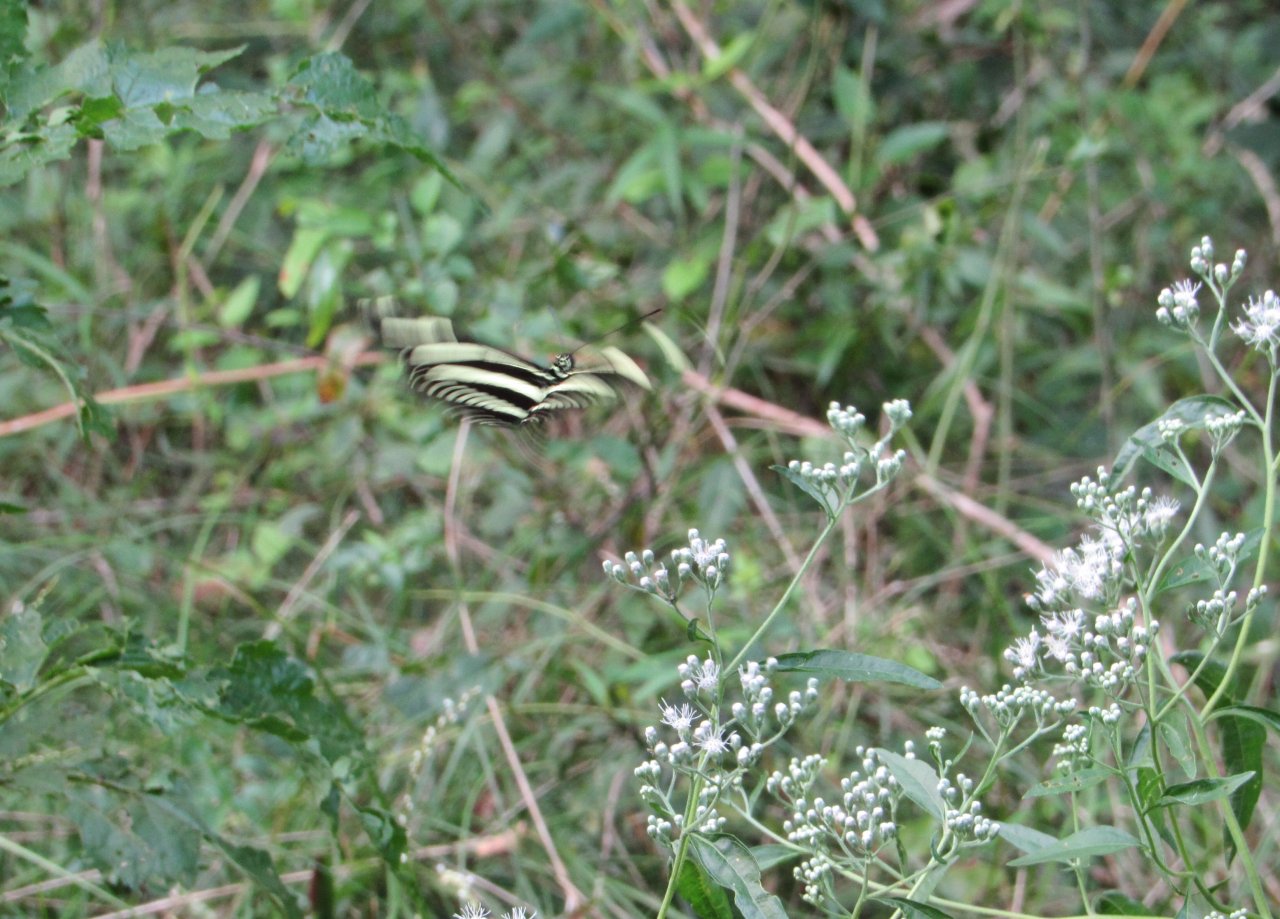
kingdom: Animalia
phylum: Arthropoda
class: Insecta
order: Lepidoptera
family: Nymphalidae
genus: Heliconius
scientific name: Heliconius charithonia
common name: Zebra Longwing
